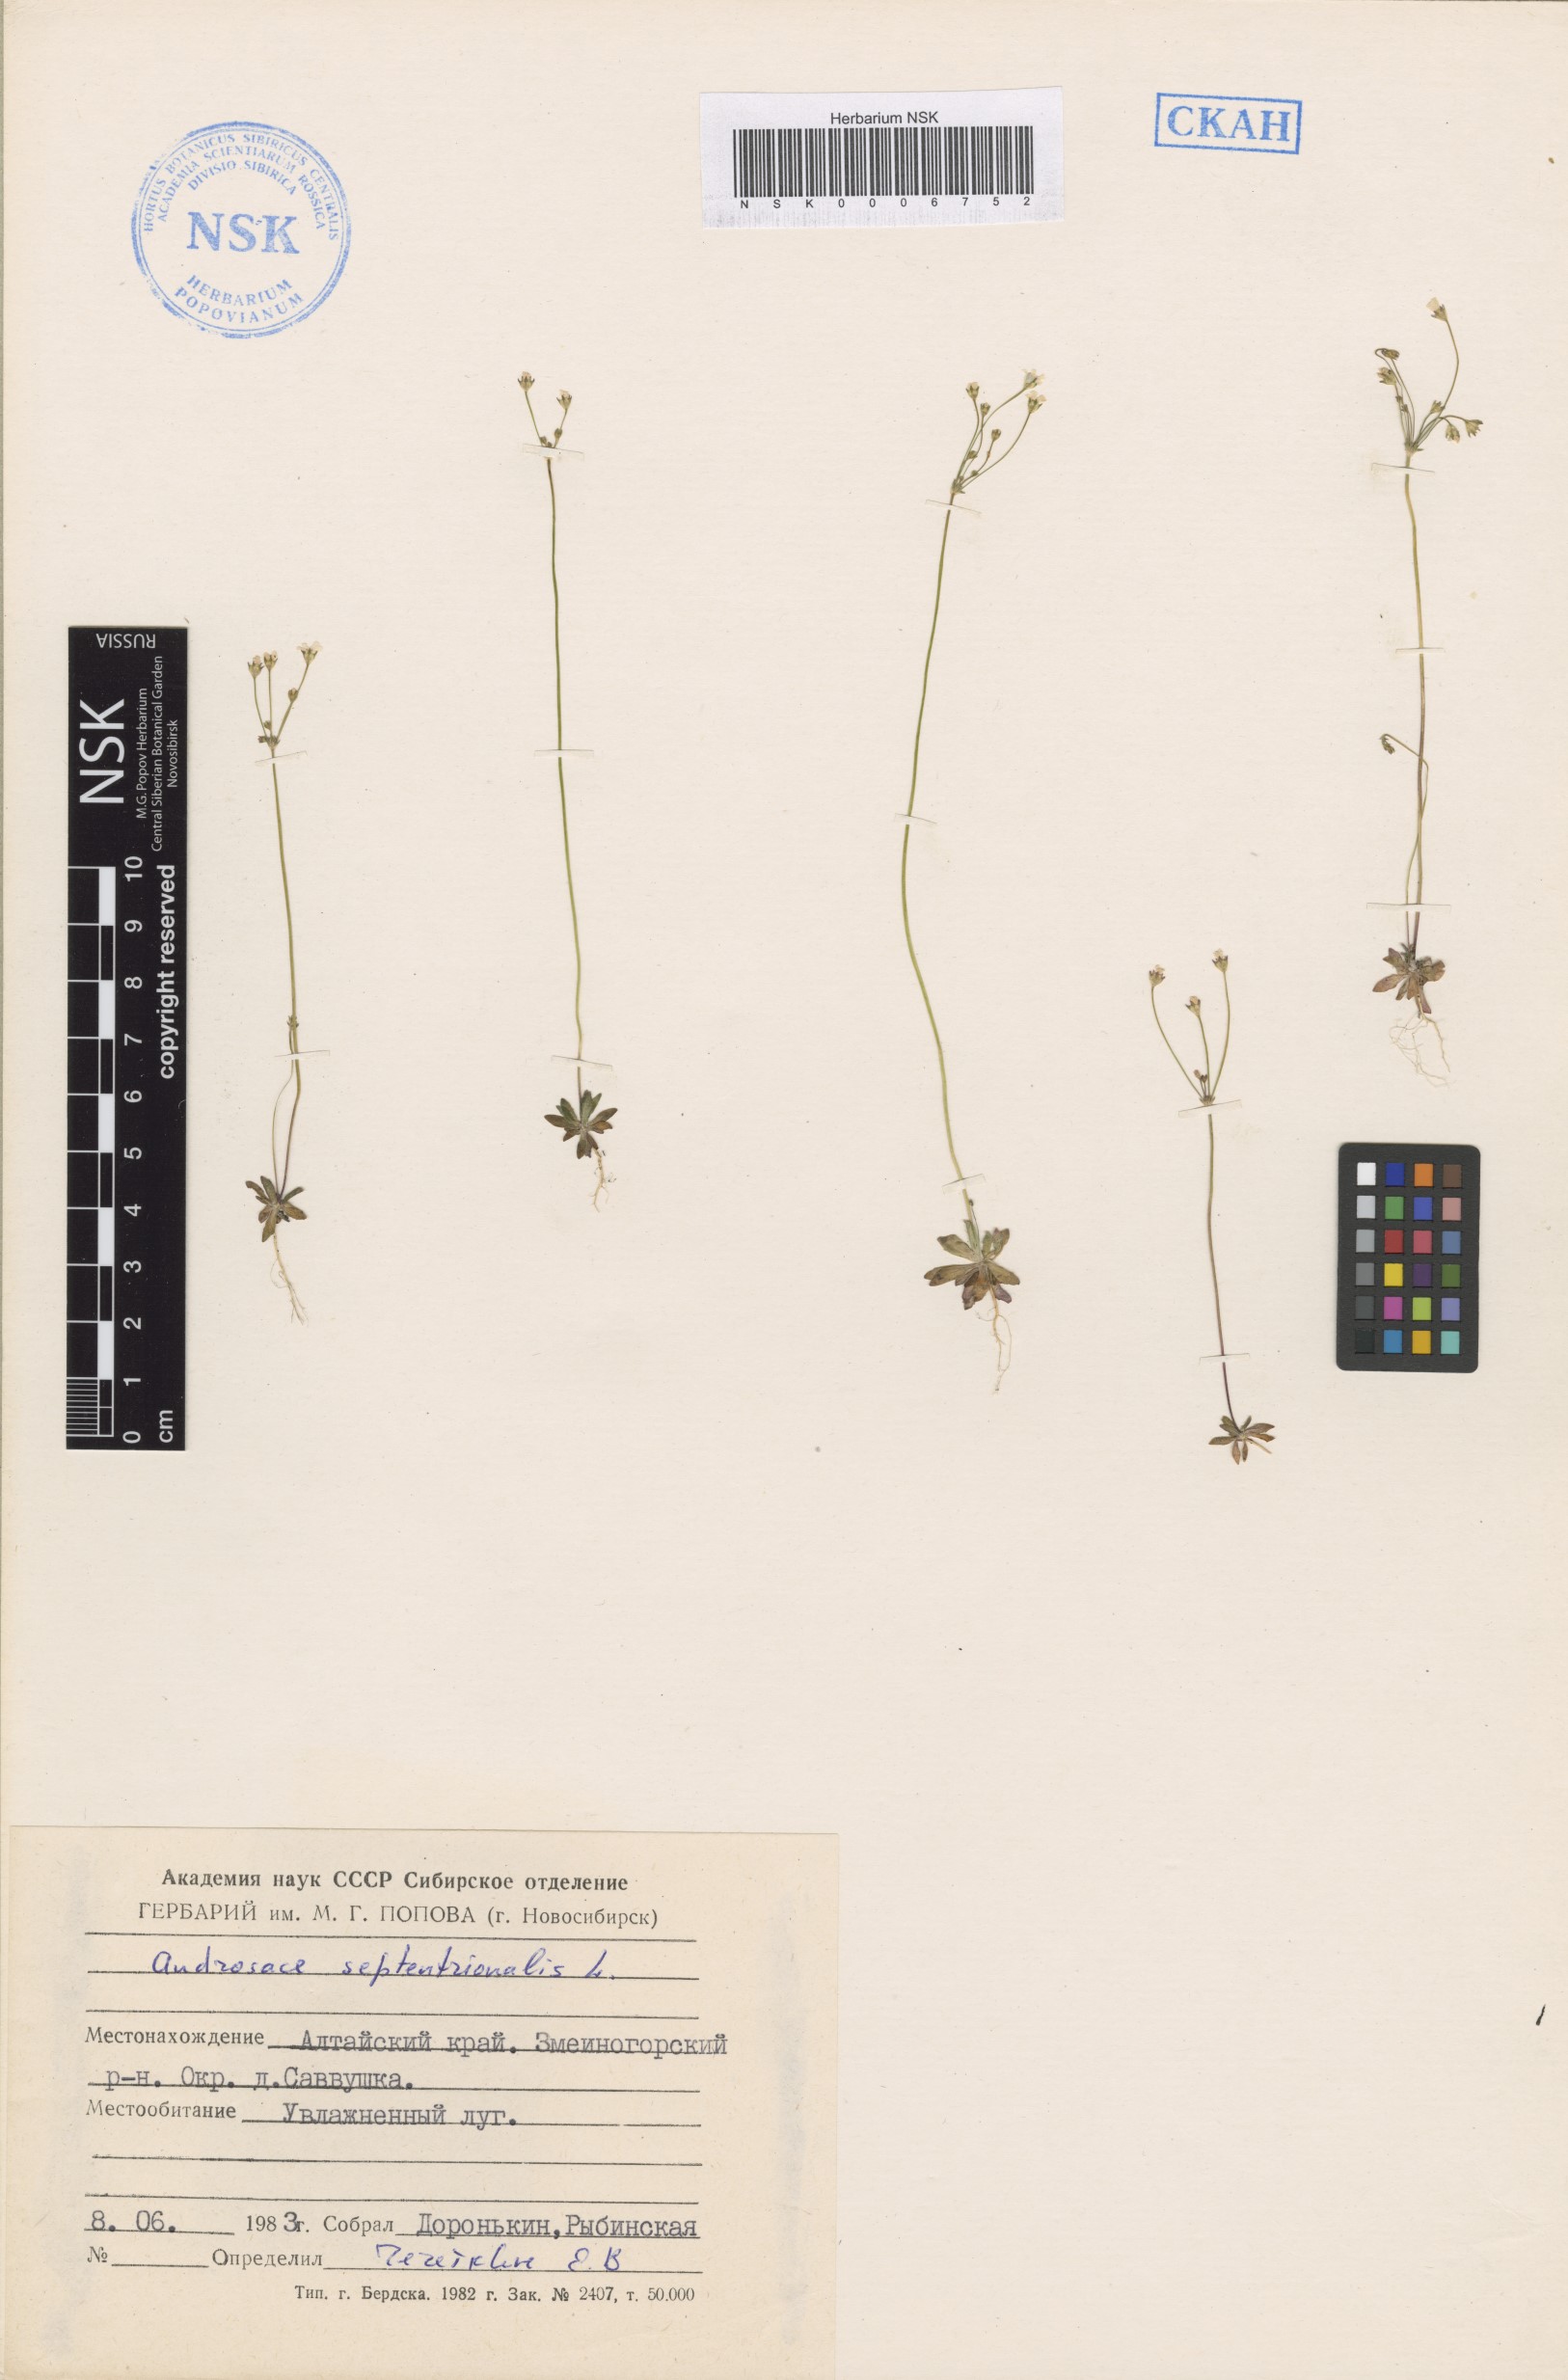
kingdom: Plantae
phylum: Tracheophyta
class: Magnoliopsida
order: Ericales
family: Primulaceae
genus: Androsace
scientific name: Androsace septentrionalis
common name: Hairy northern fairy-candelabra
